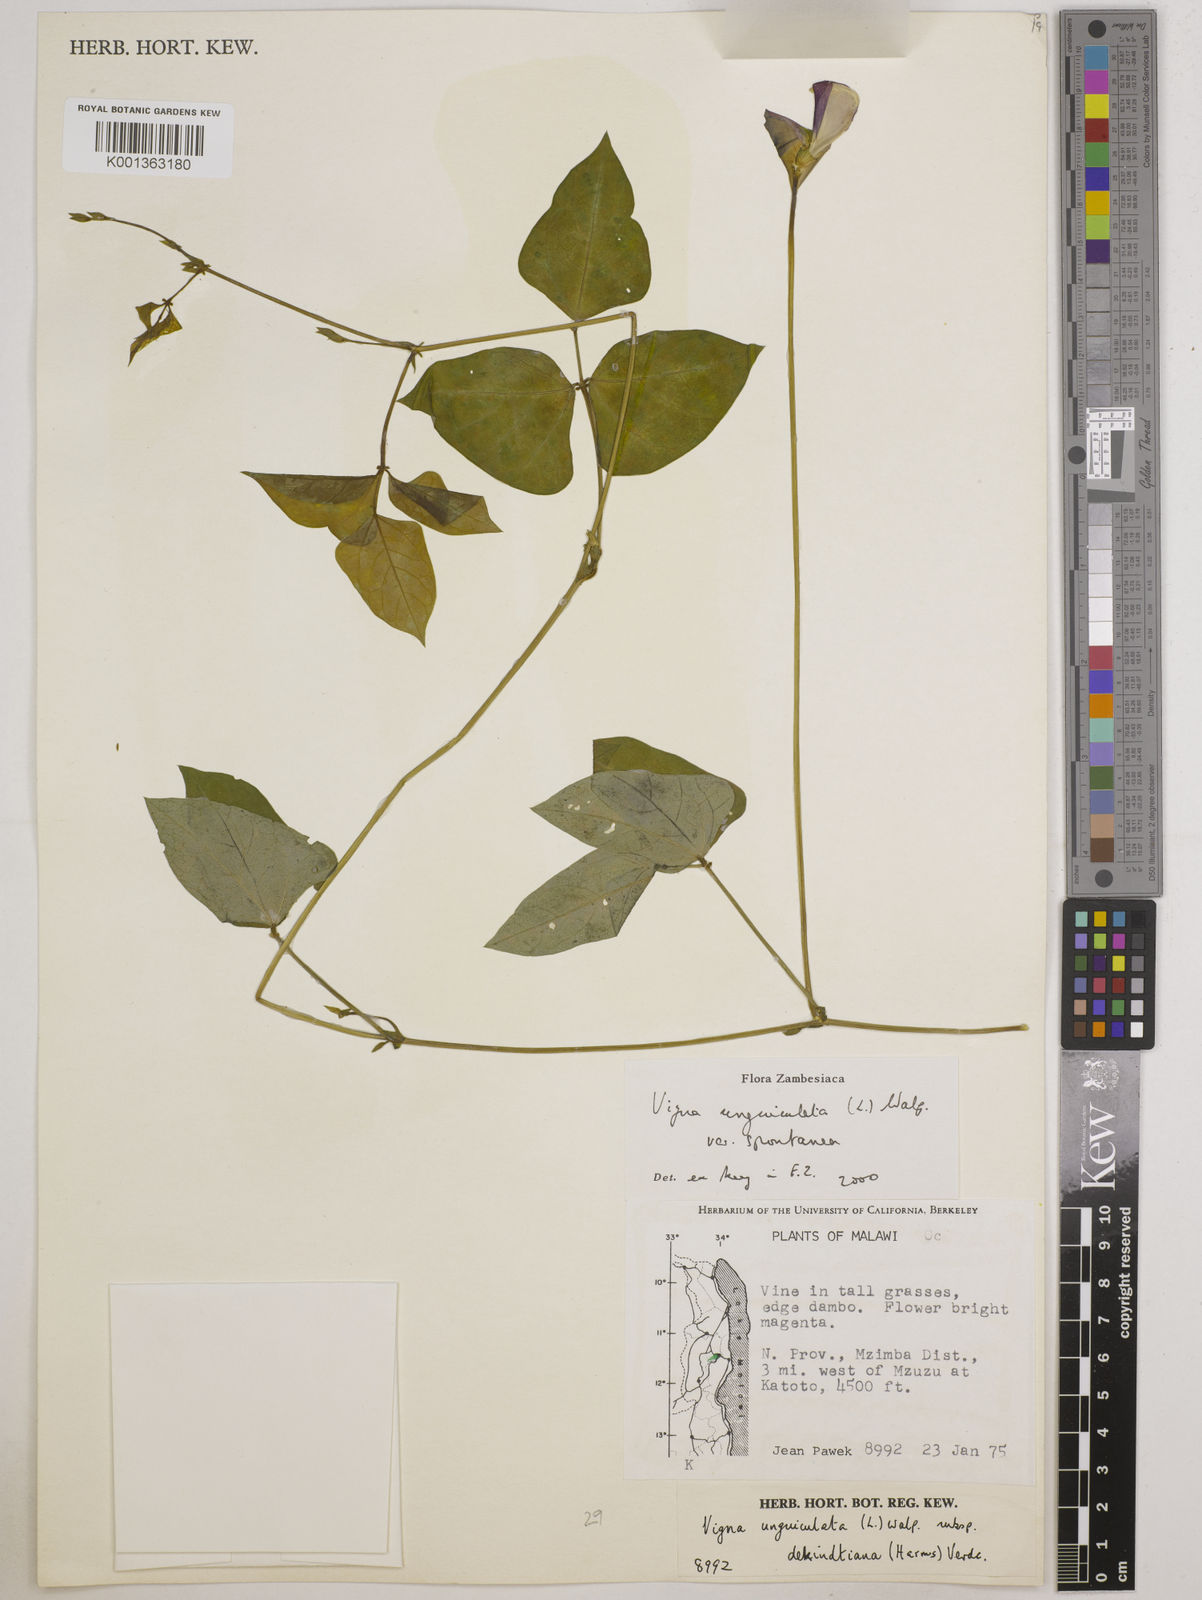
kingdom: Plantae
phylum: Tracheophyta
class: Magnoliopsida
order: Fabales
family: Fabaceae
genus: Vigna
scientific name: Vigna unguiculata
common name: Cowpea
